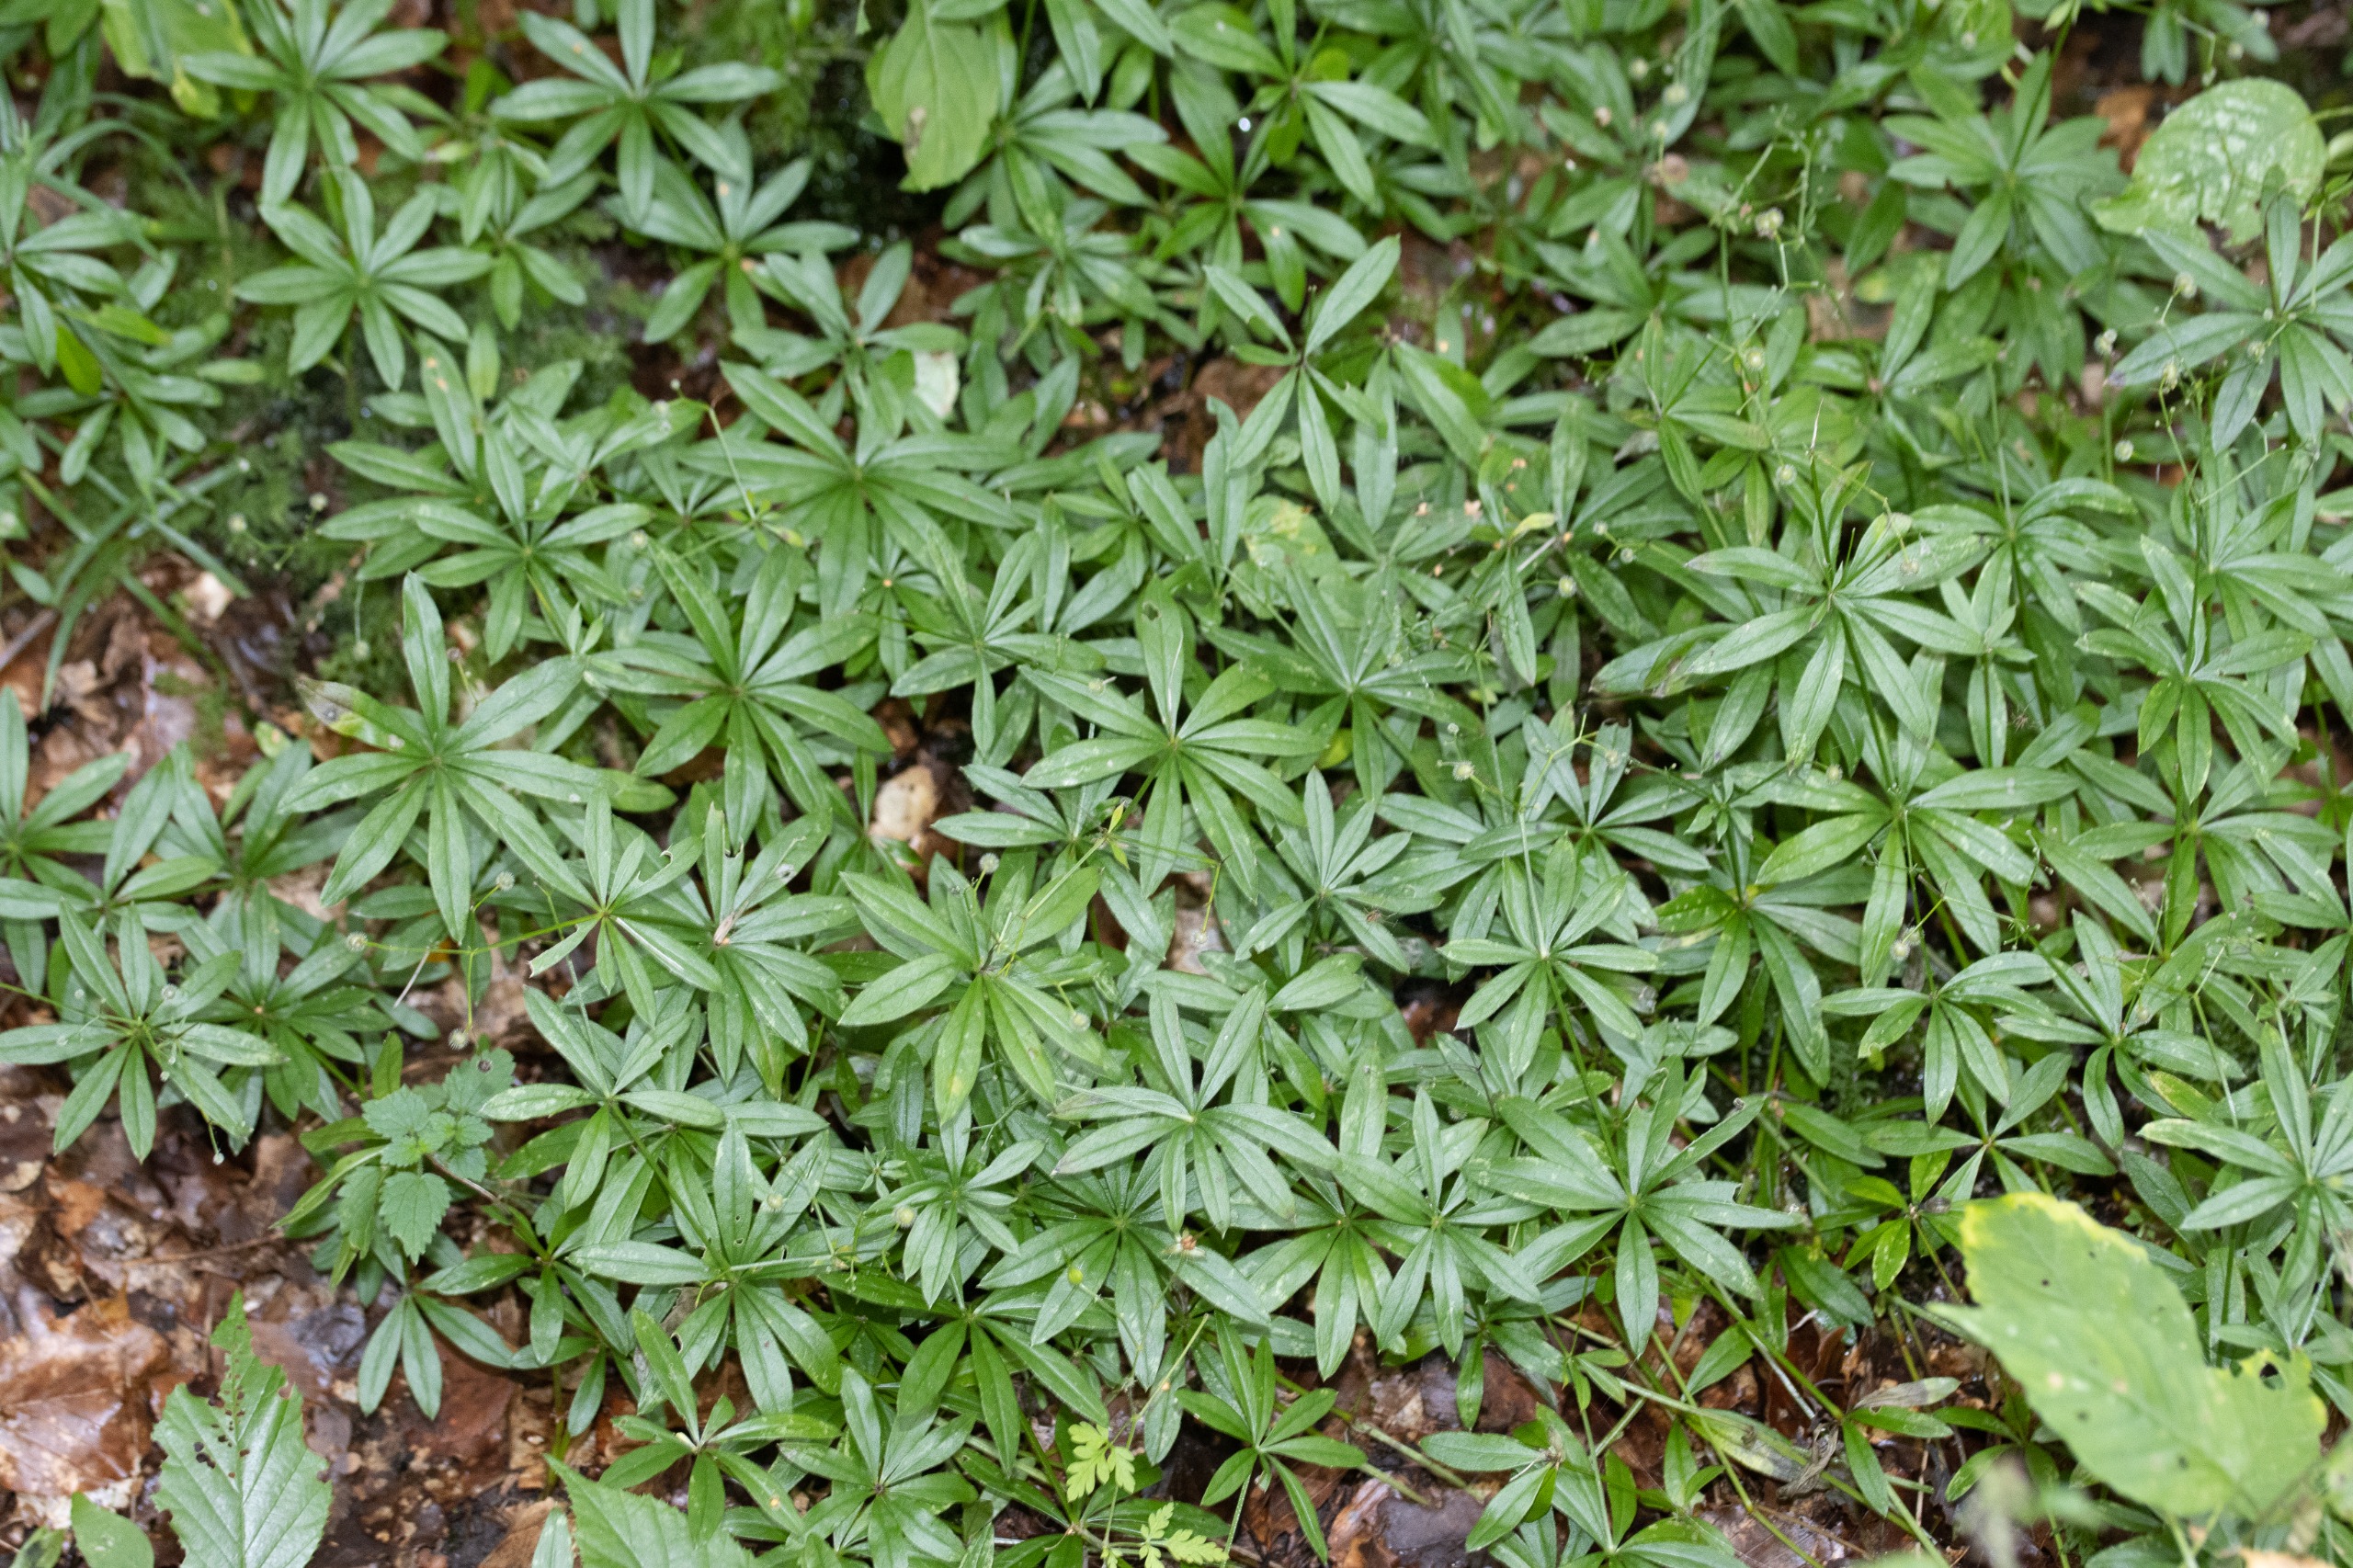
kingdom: Plantae
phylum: Tracheophyta
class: Magnoliopsida
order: Gentianales
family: Rubiaceae
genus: Galium
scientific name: Galium odoratum
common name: Skovmærke
